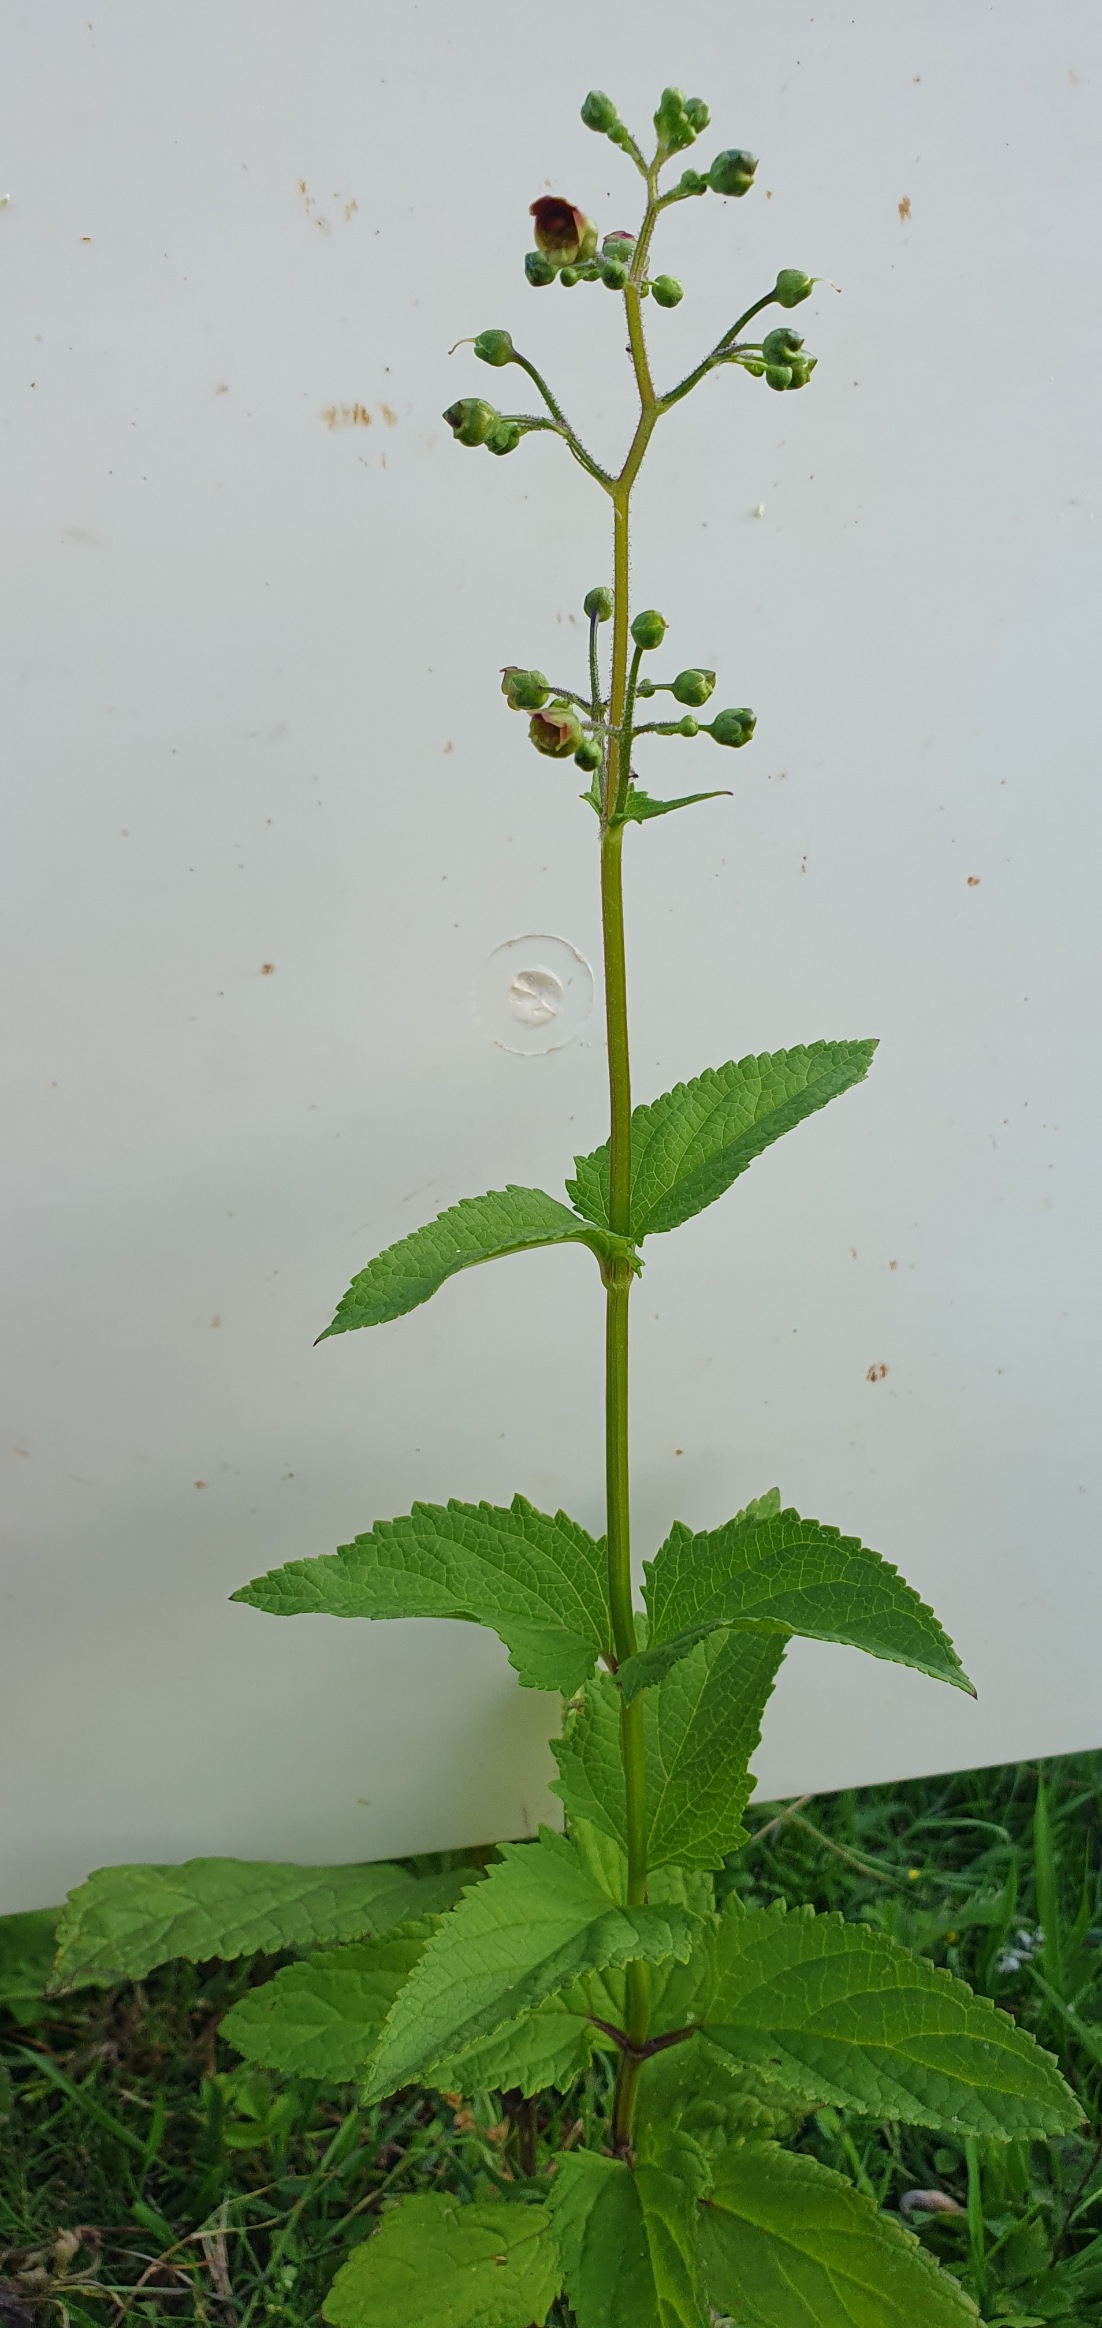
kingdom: Plantae
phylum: Tracheophyta
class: Magnoliopsida
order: Lamiales
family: Scrophulariaceae
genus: Scrophularia
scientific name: Scrophularia nodosa
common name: Knoldet brunrod
